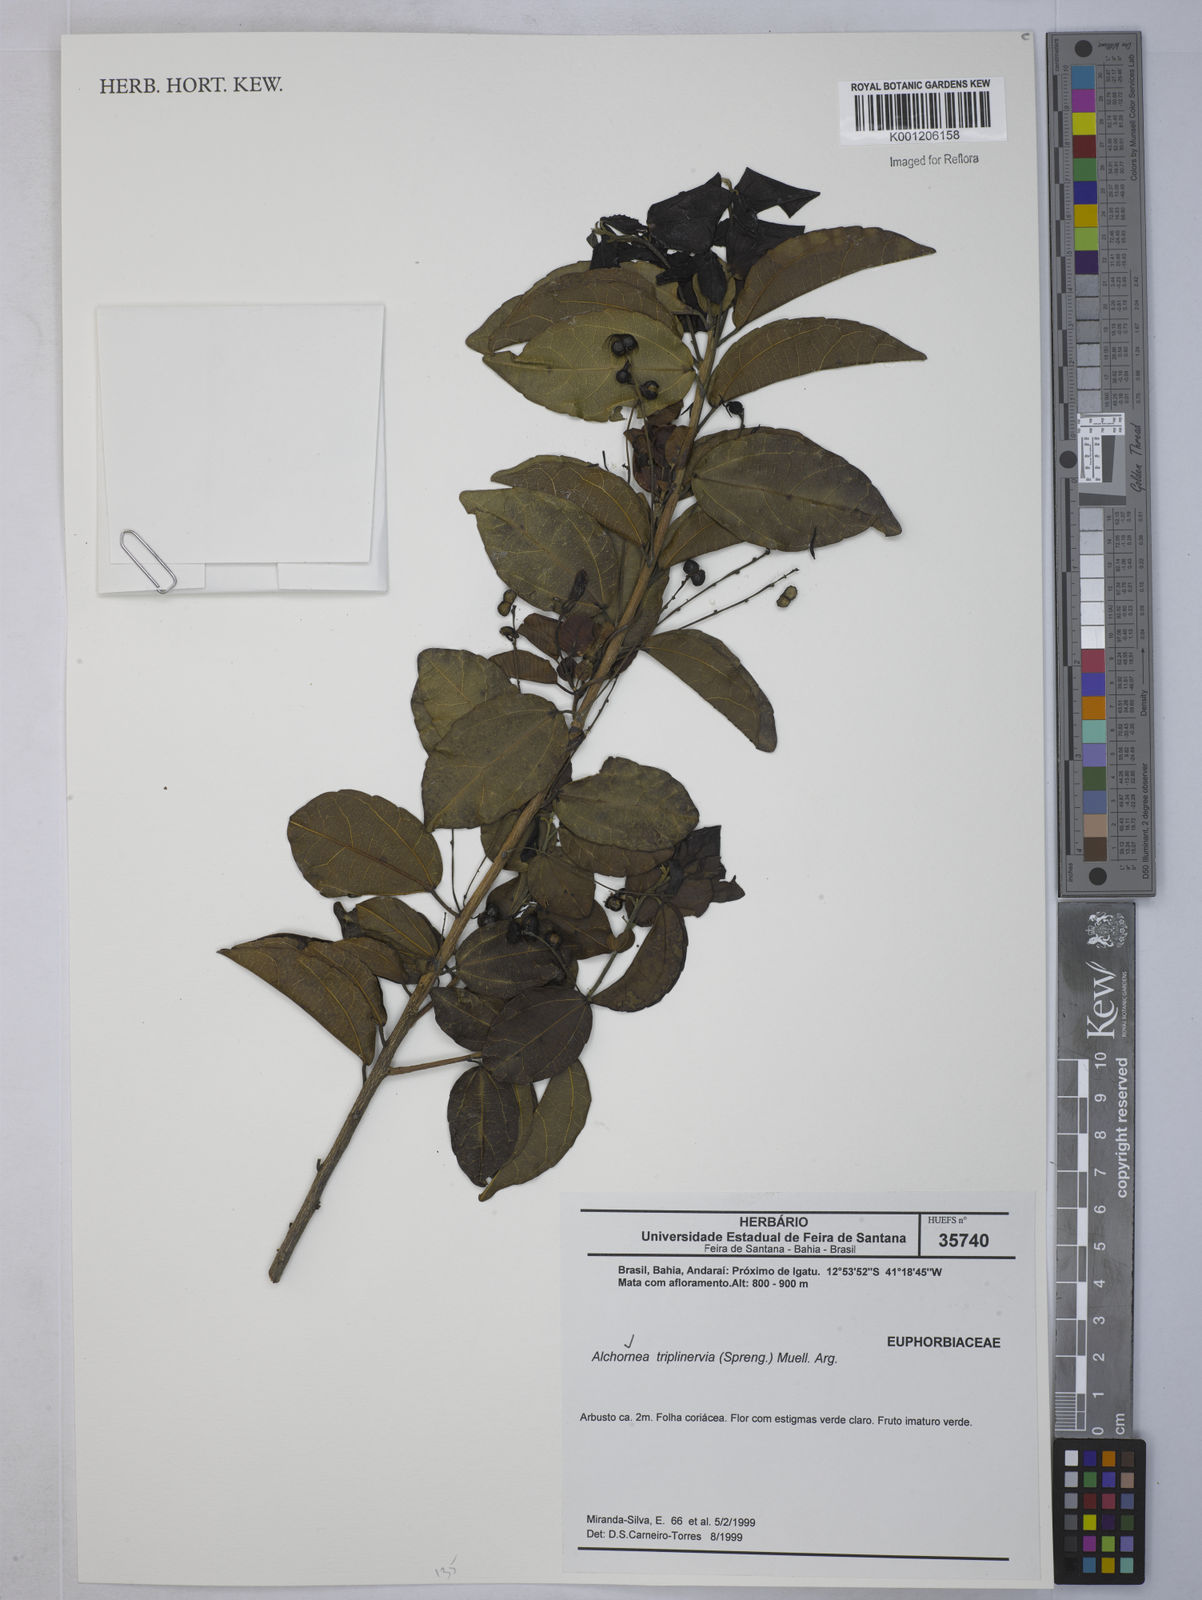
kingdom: Plantae
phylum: Tracheophyta
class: Magnoliopsida
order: Malpighiales
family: Euphorbiaceae
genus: Alchornea
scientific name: Alchornea
